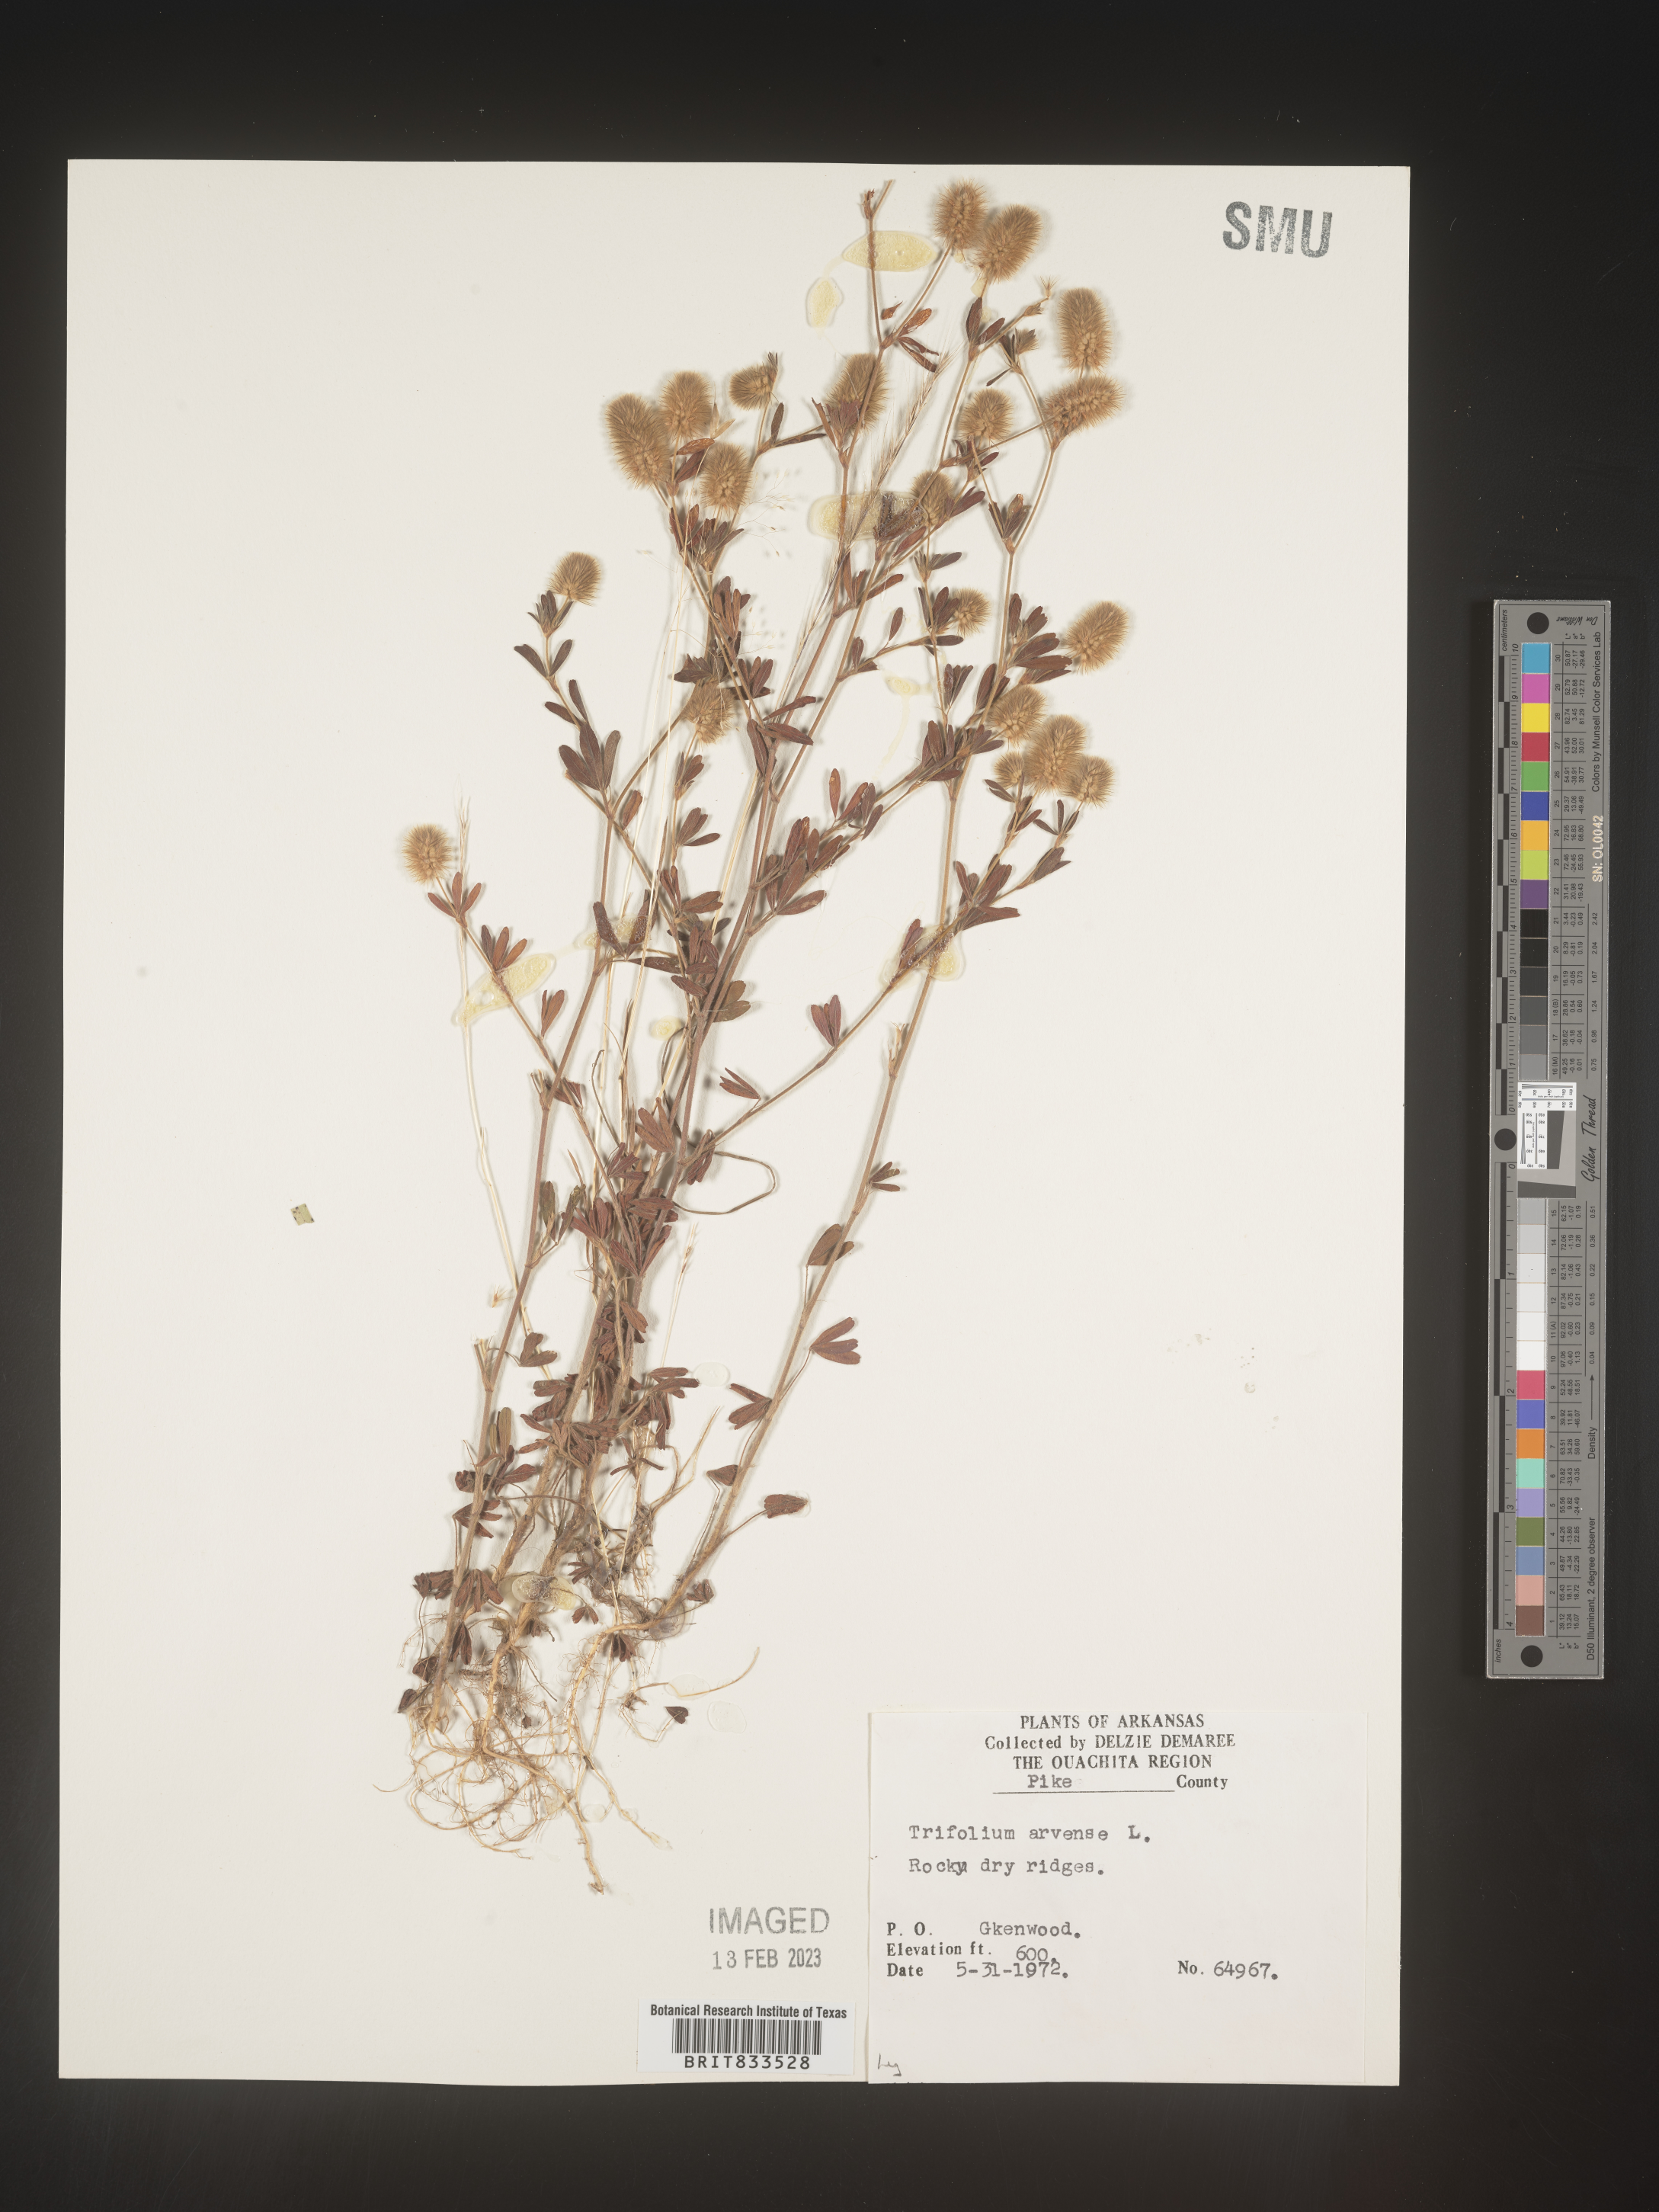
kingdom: Plantae
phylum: Tracheophyta
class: Magnoliopsida
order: Fabales
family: Fabaceae
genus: Trifolium
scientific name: Trifolium arvense
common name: Hare's-foot clover
